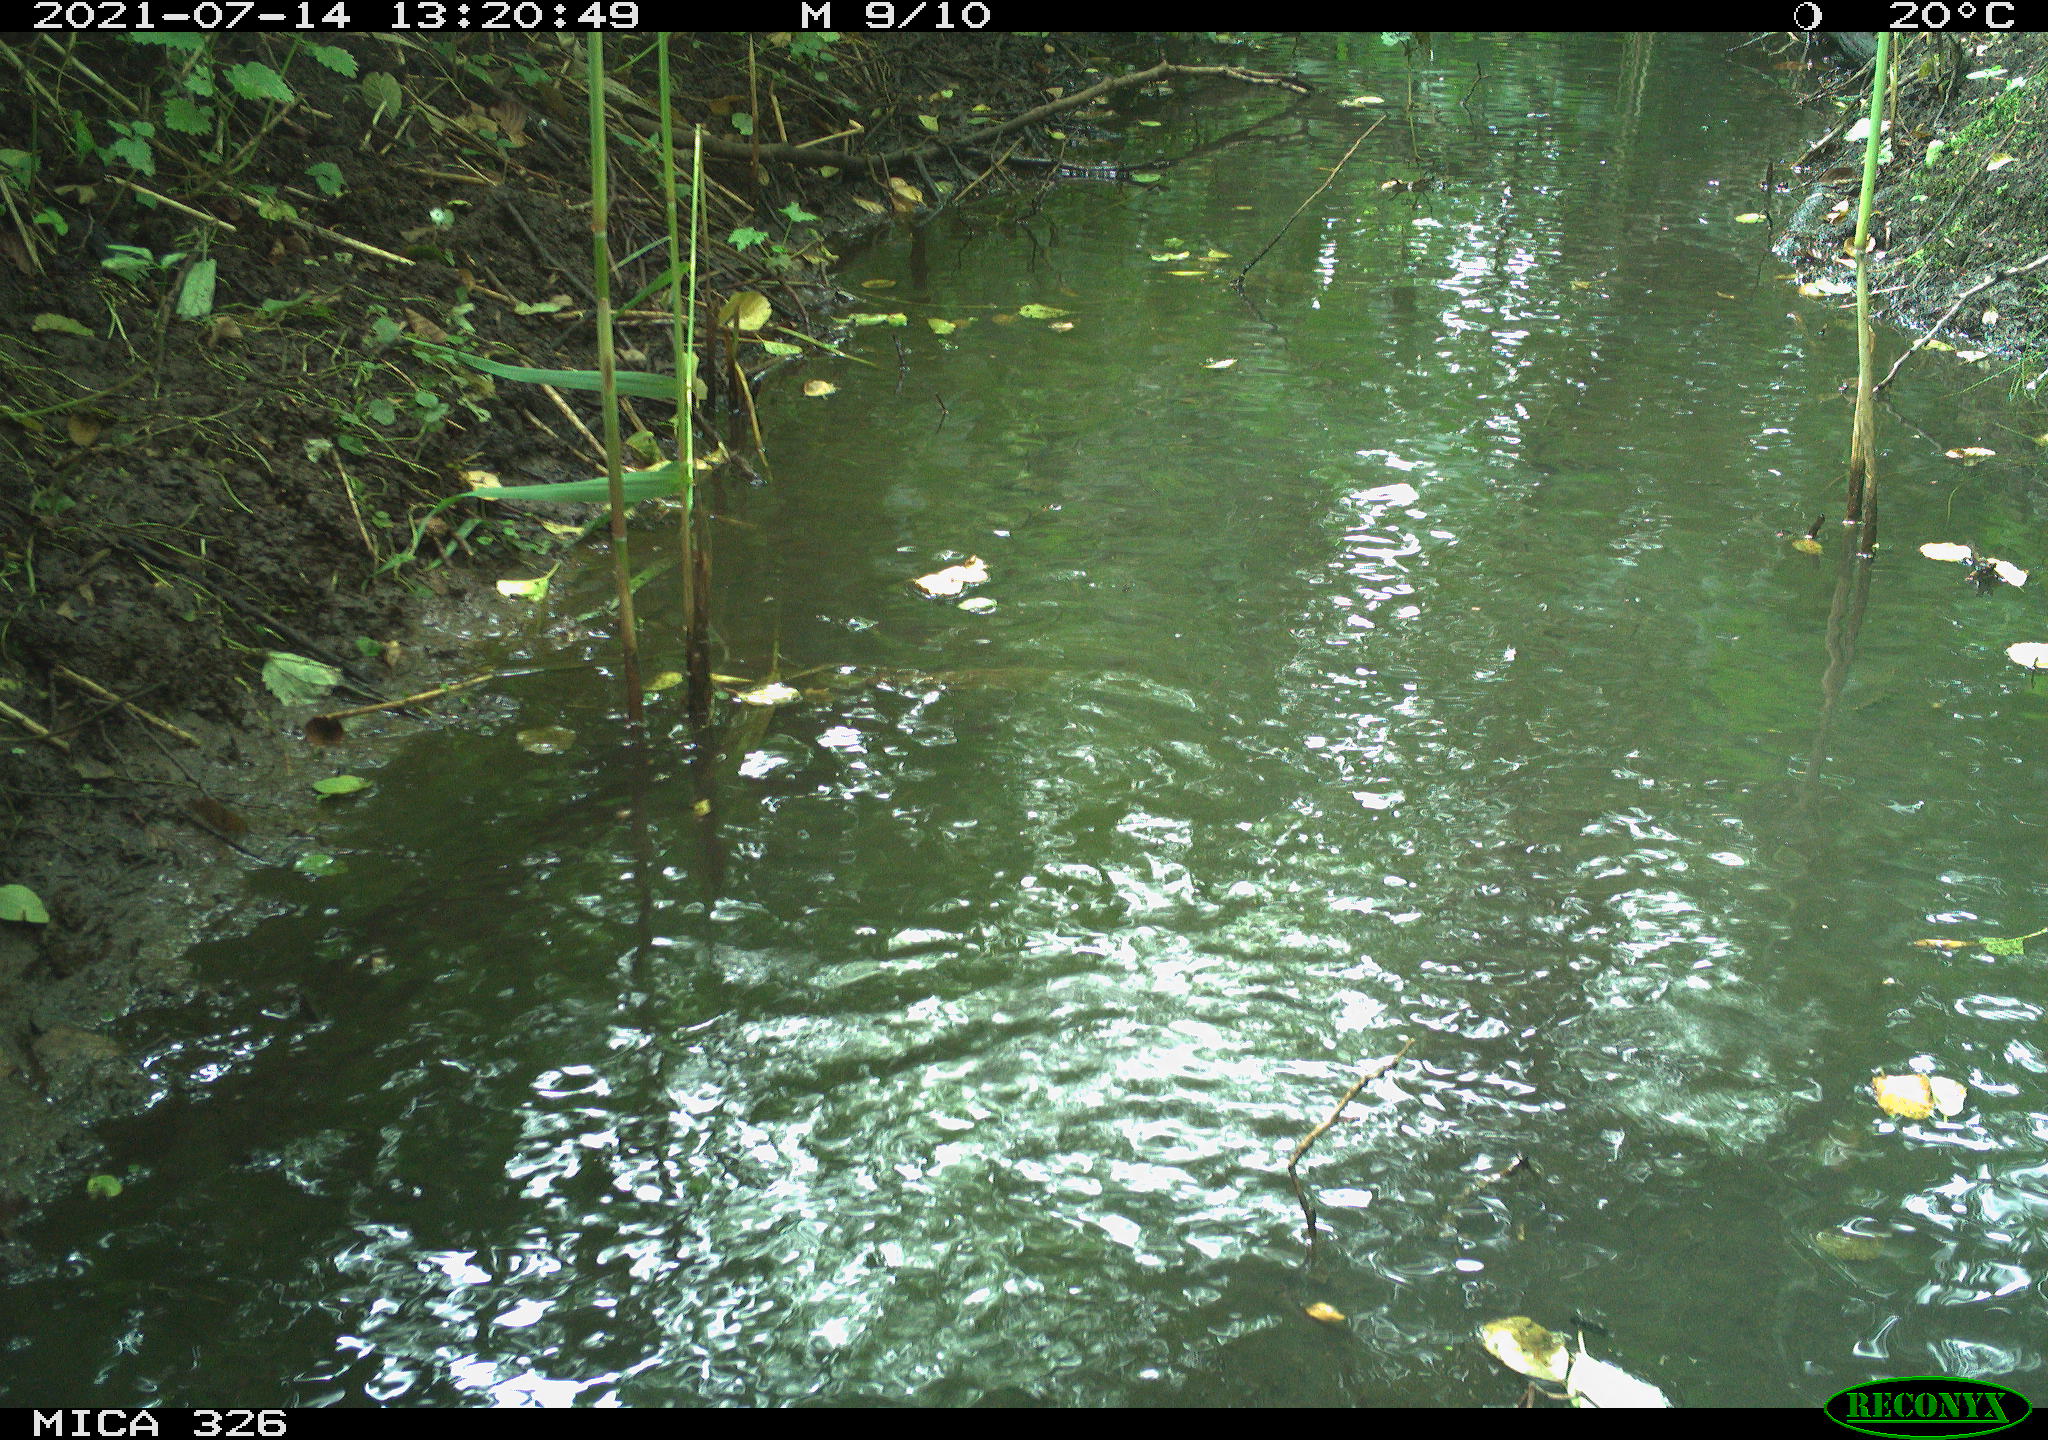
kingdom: Animalia
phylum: Chordata
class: Aves
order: Anseriformes
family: Anatidae
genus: Anas
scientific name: Anas platyrhynchos
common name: Mallard
